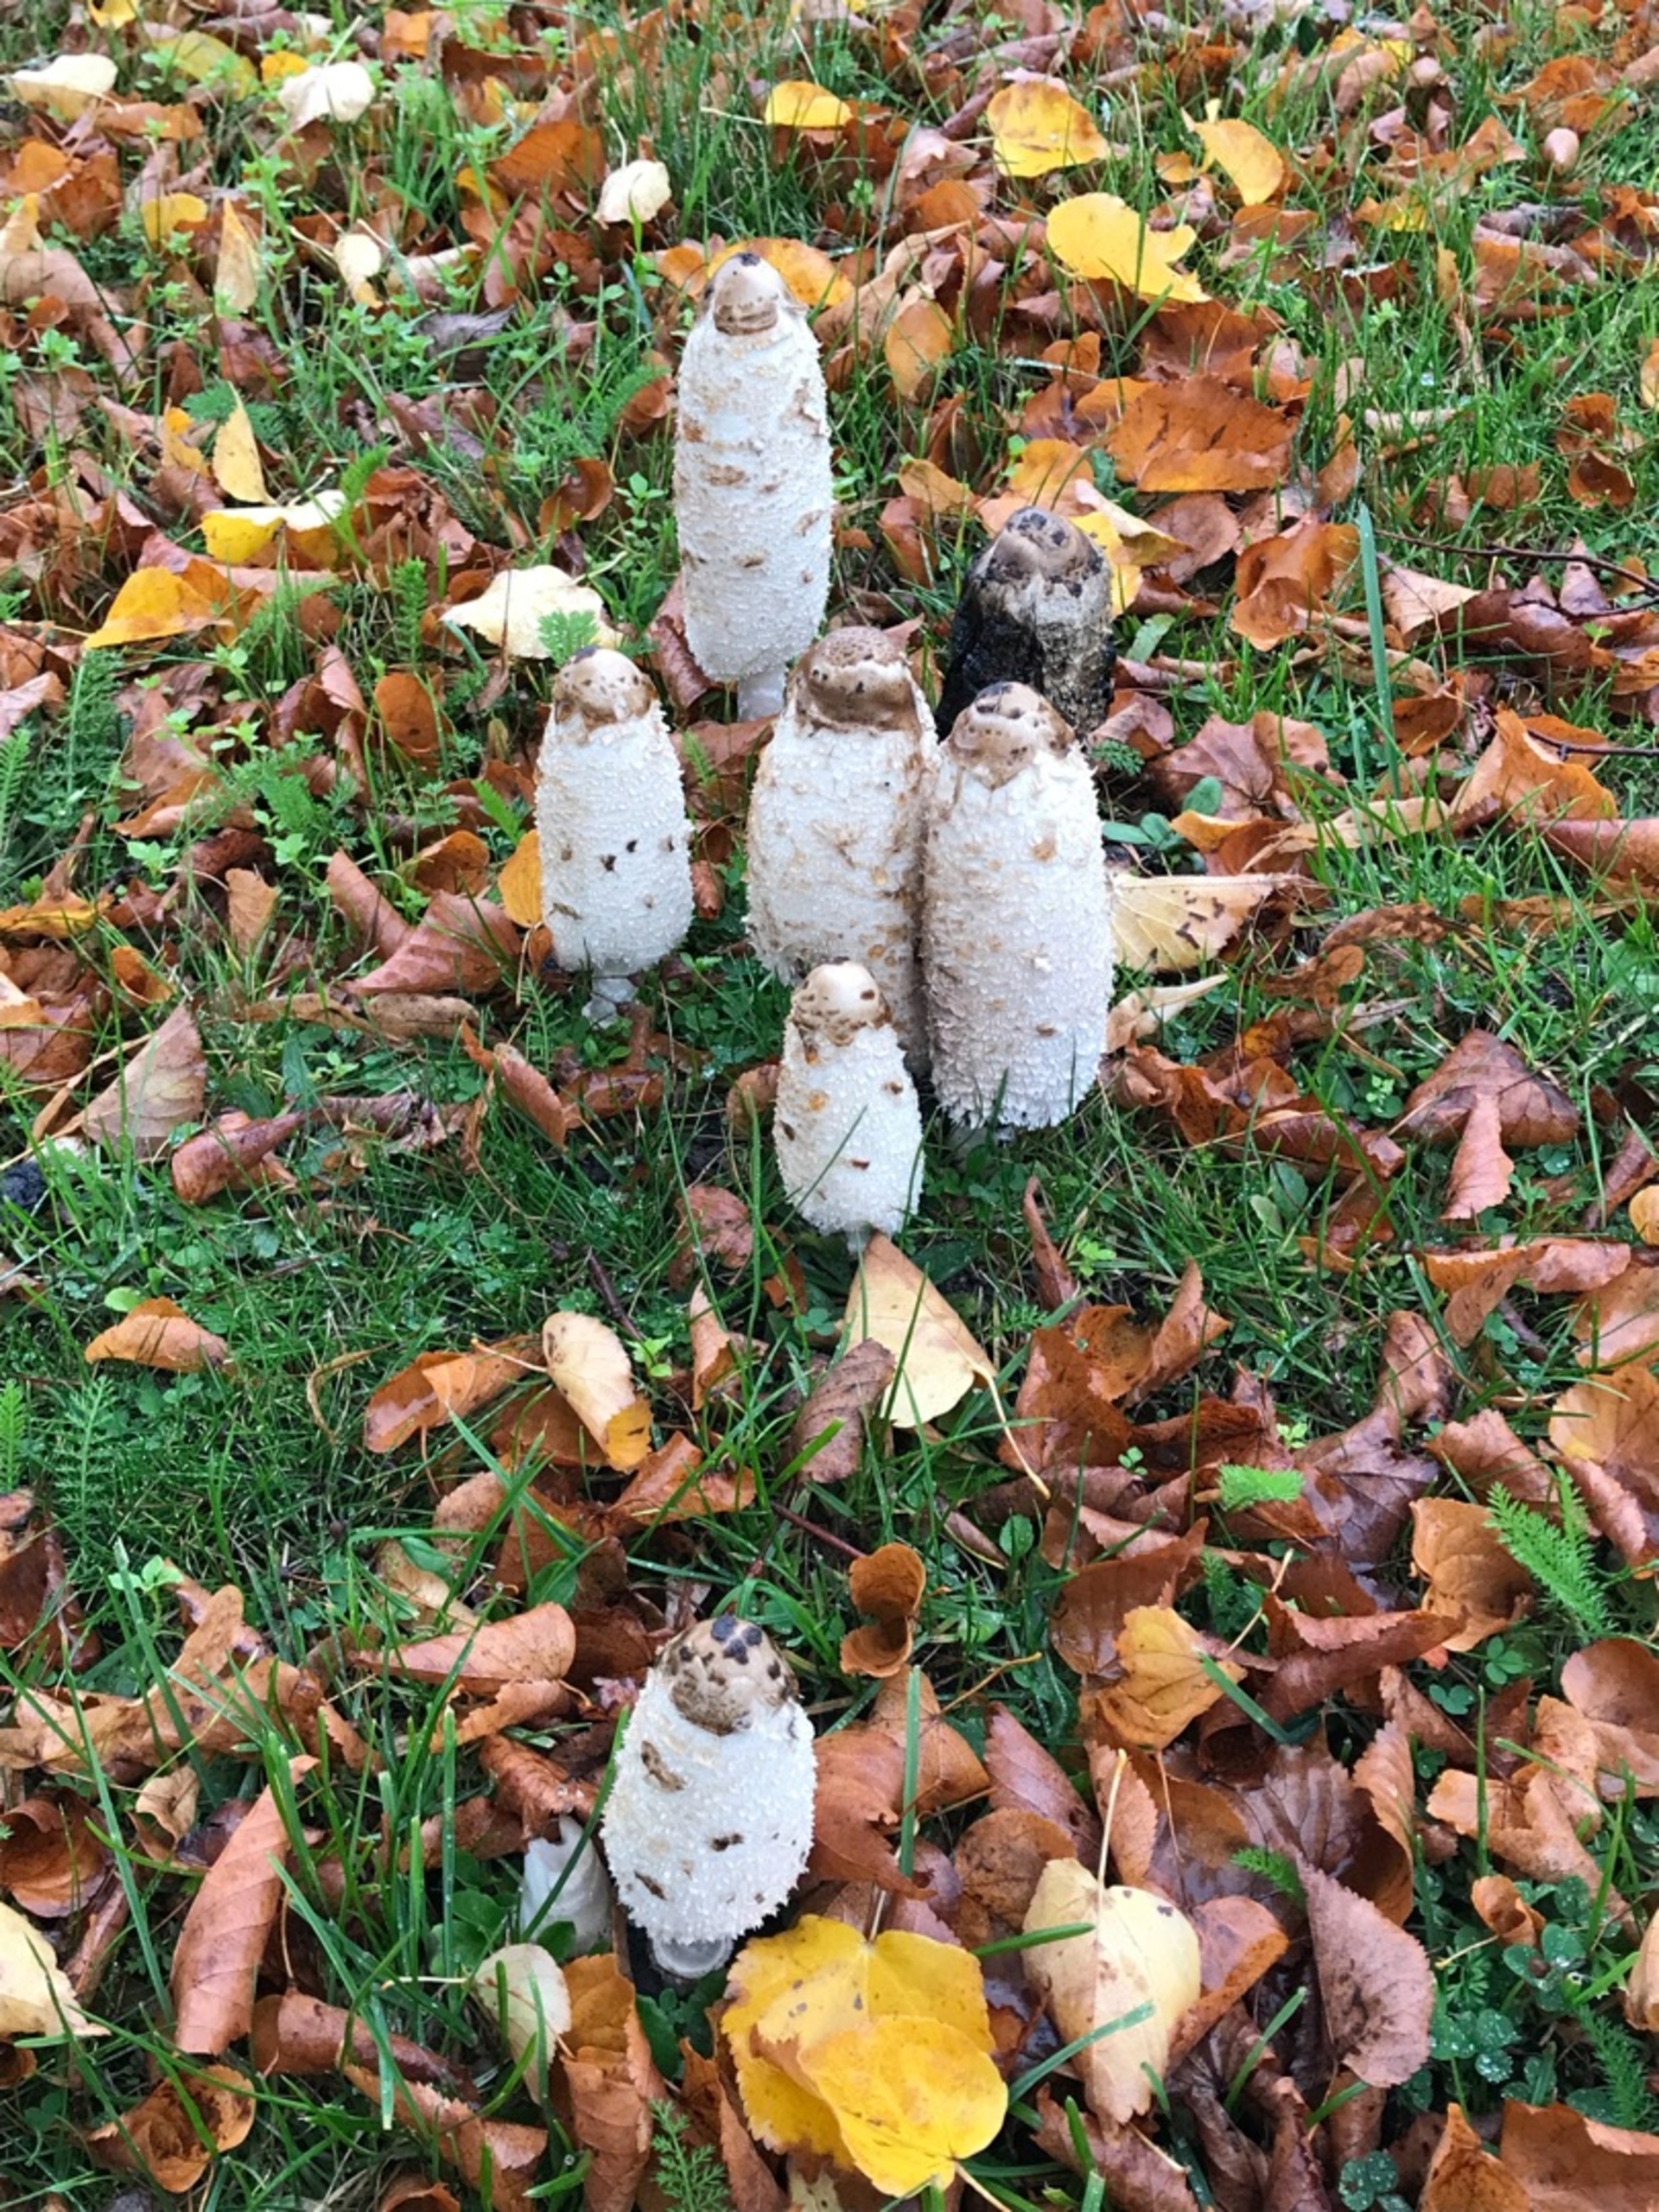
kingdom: Fungi
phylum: Basidiomycota
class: Agaricomycetes
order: Agaricales
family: Agaricaceae
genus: Coprinus
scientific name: Coprinus comatus
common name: Stor parykhat
